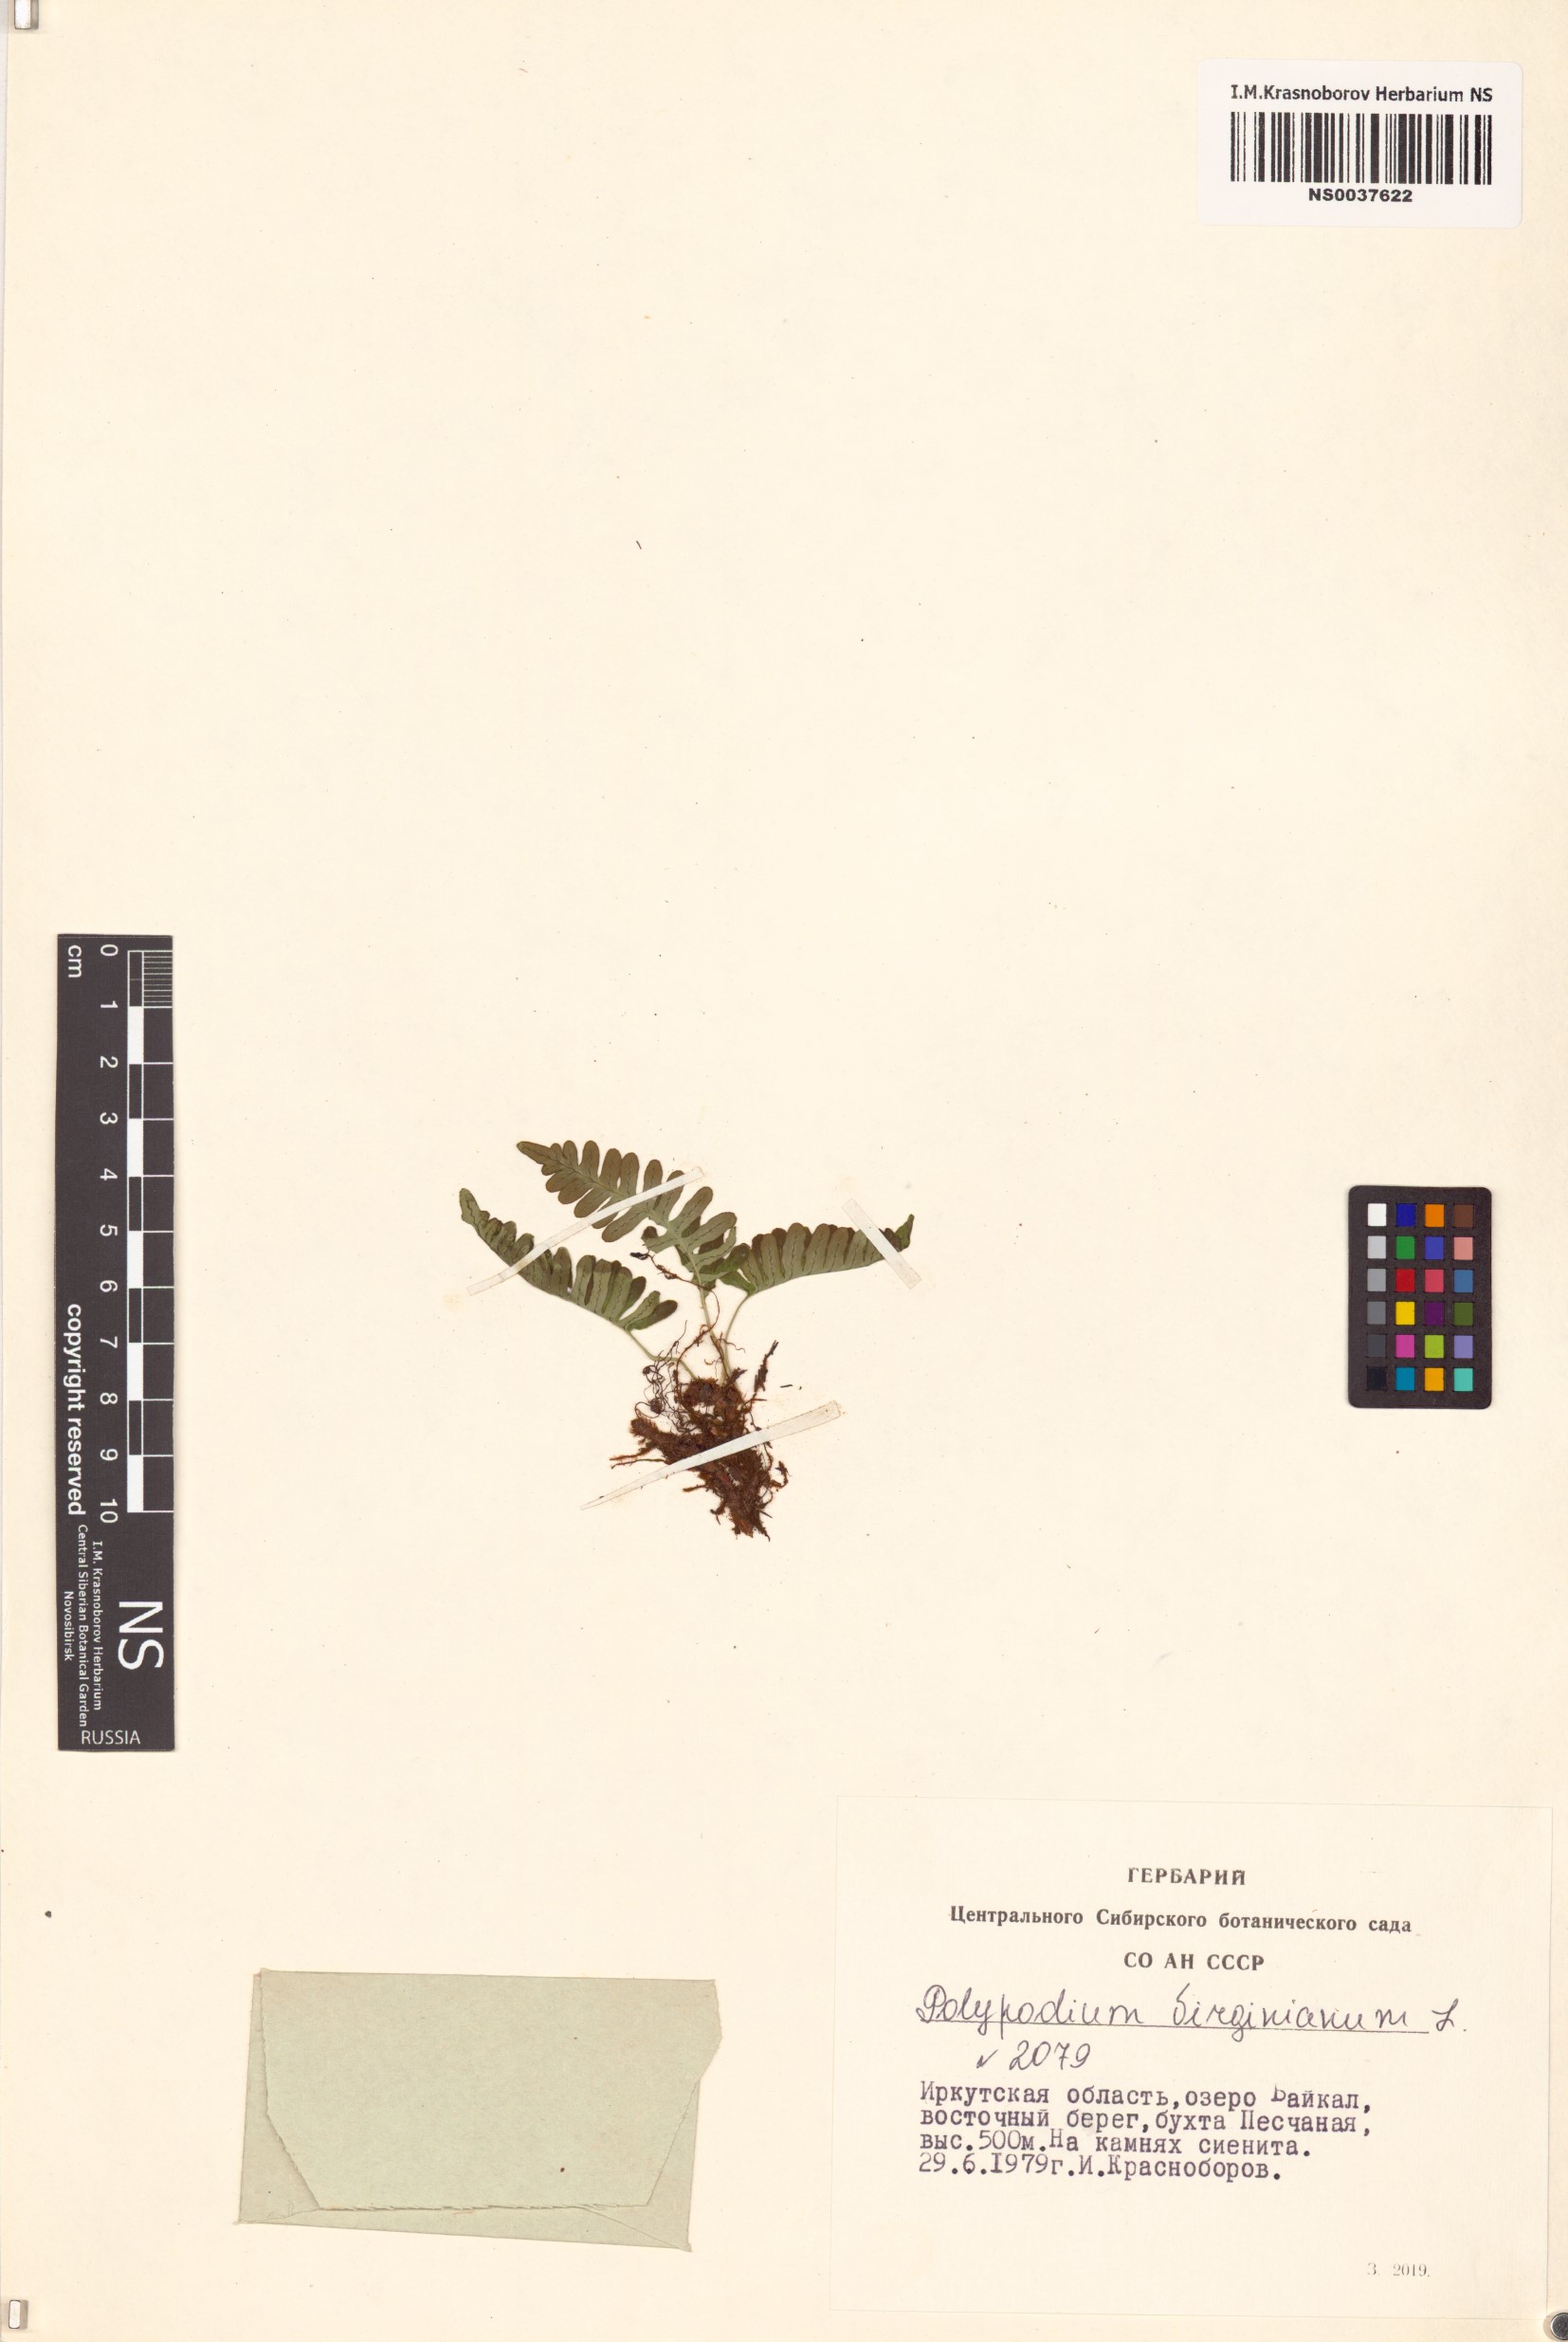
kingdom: Plantae
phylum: Tracheophyta
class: Polypodiopsida
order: Polypodiales
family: Polypodiaceae
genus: Polypodium
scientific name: Polypodium virginianum
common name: American wall fern
